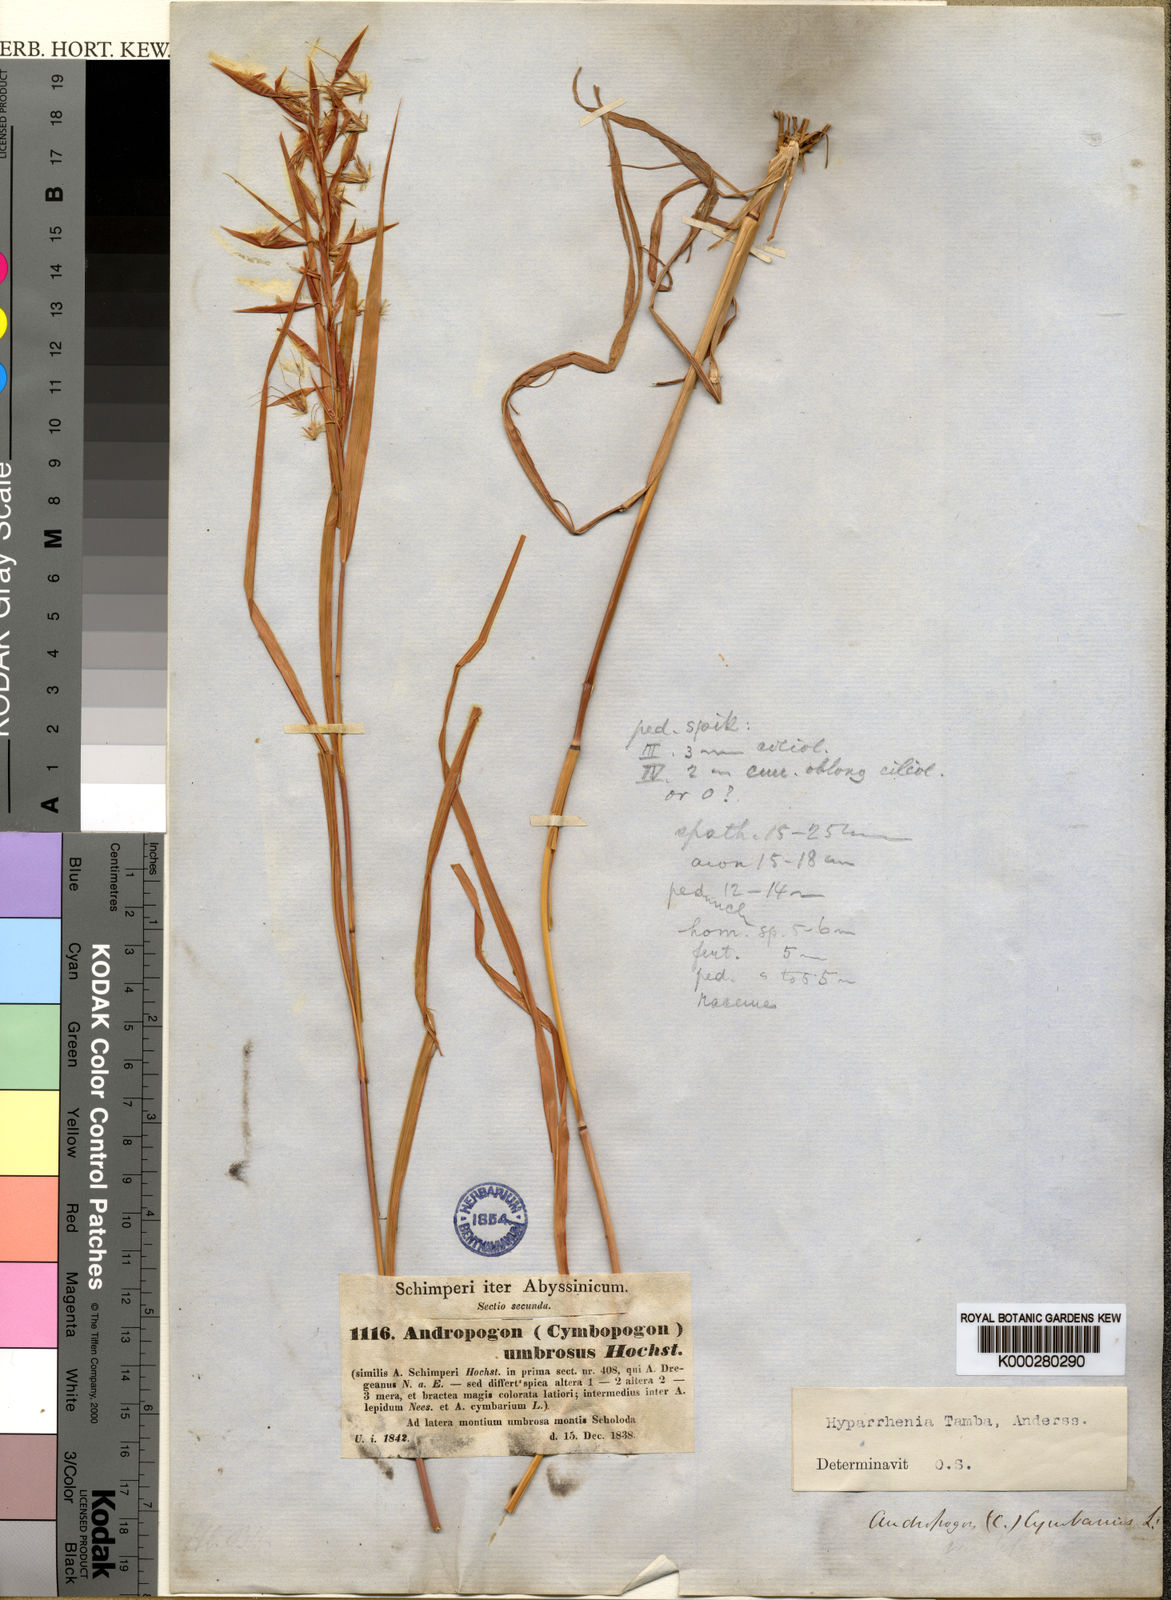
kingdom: Plantae
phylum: Tracheophyta
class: Liliopsida
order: Poales
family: Poaceae
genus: Hyparrhenia
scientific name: Hyparrhenia umbrosa
